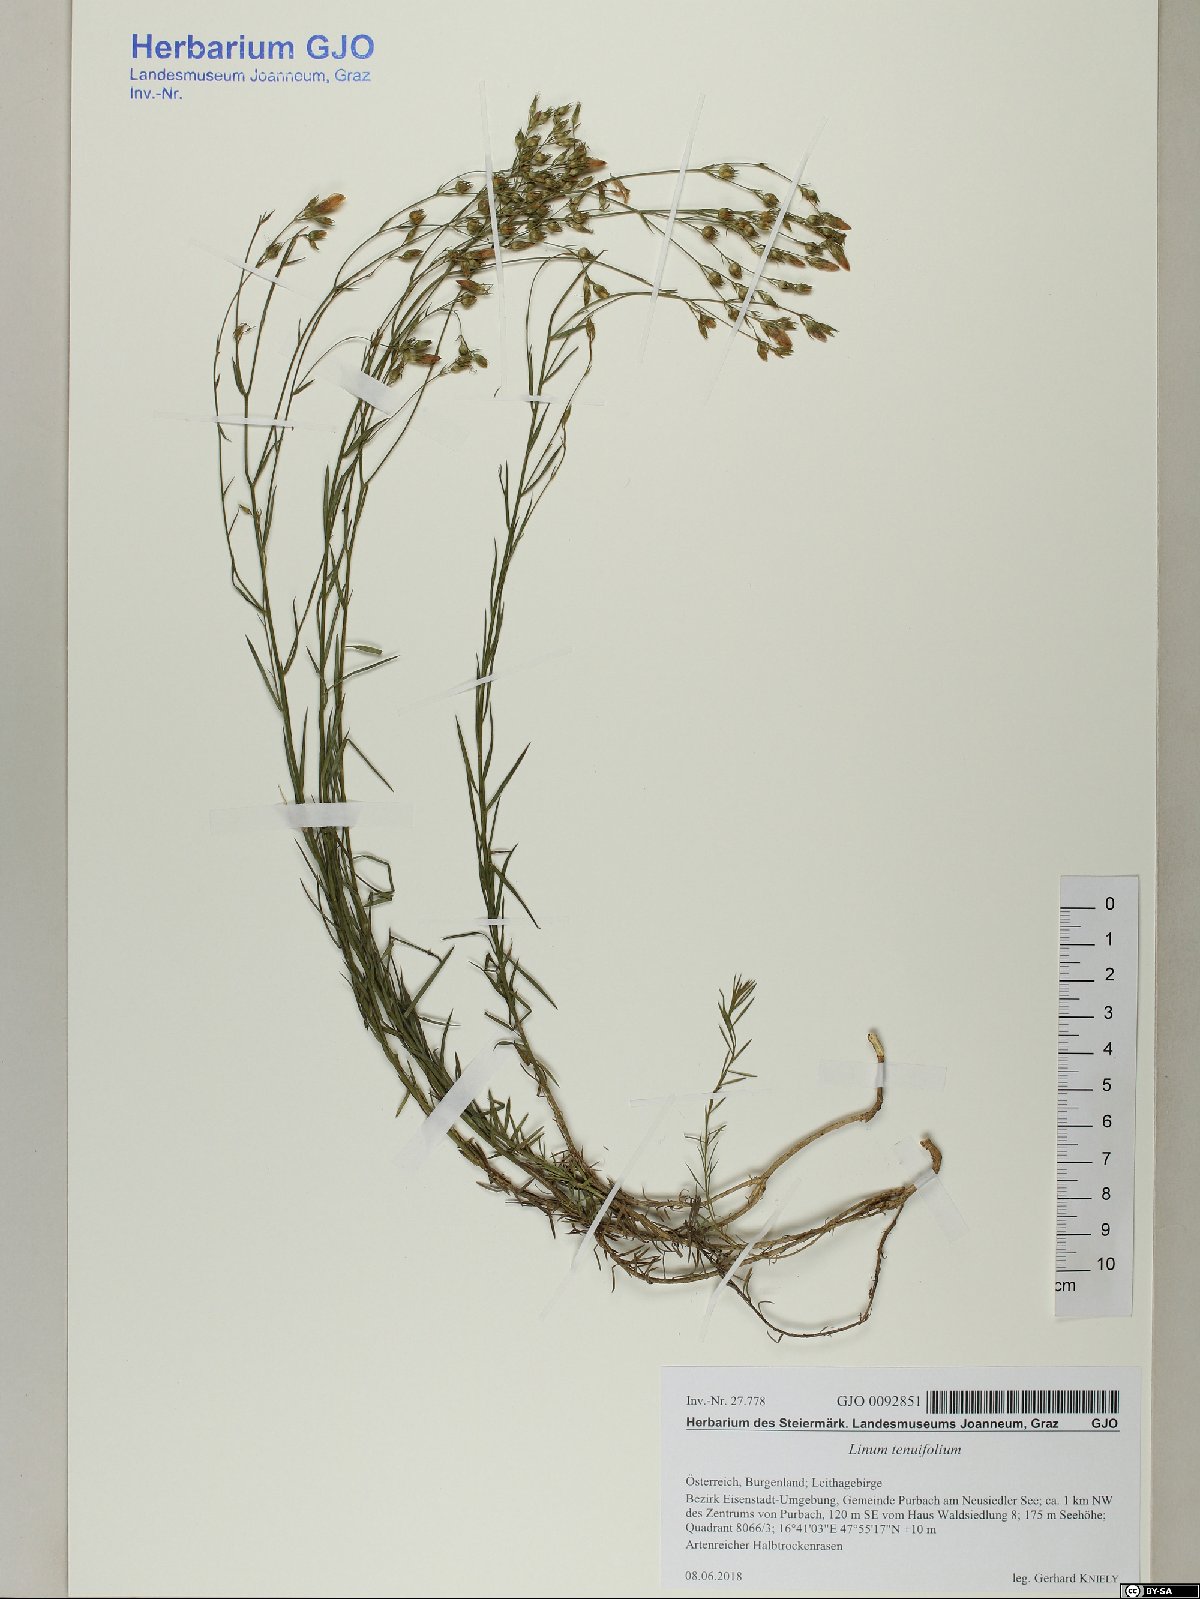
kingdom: Plantae
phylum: Tracheophyta
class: Magnoliopsida
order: Malpighiales
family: Linaceae
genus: Linum
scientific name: Linum tenuifolium
